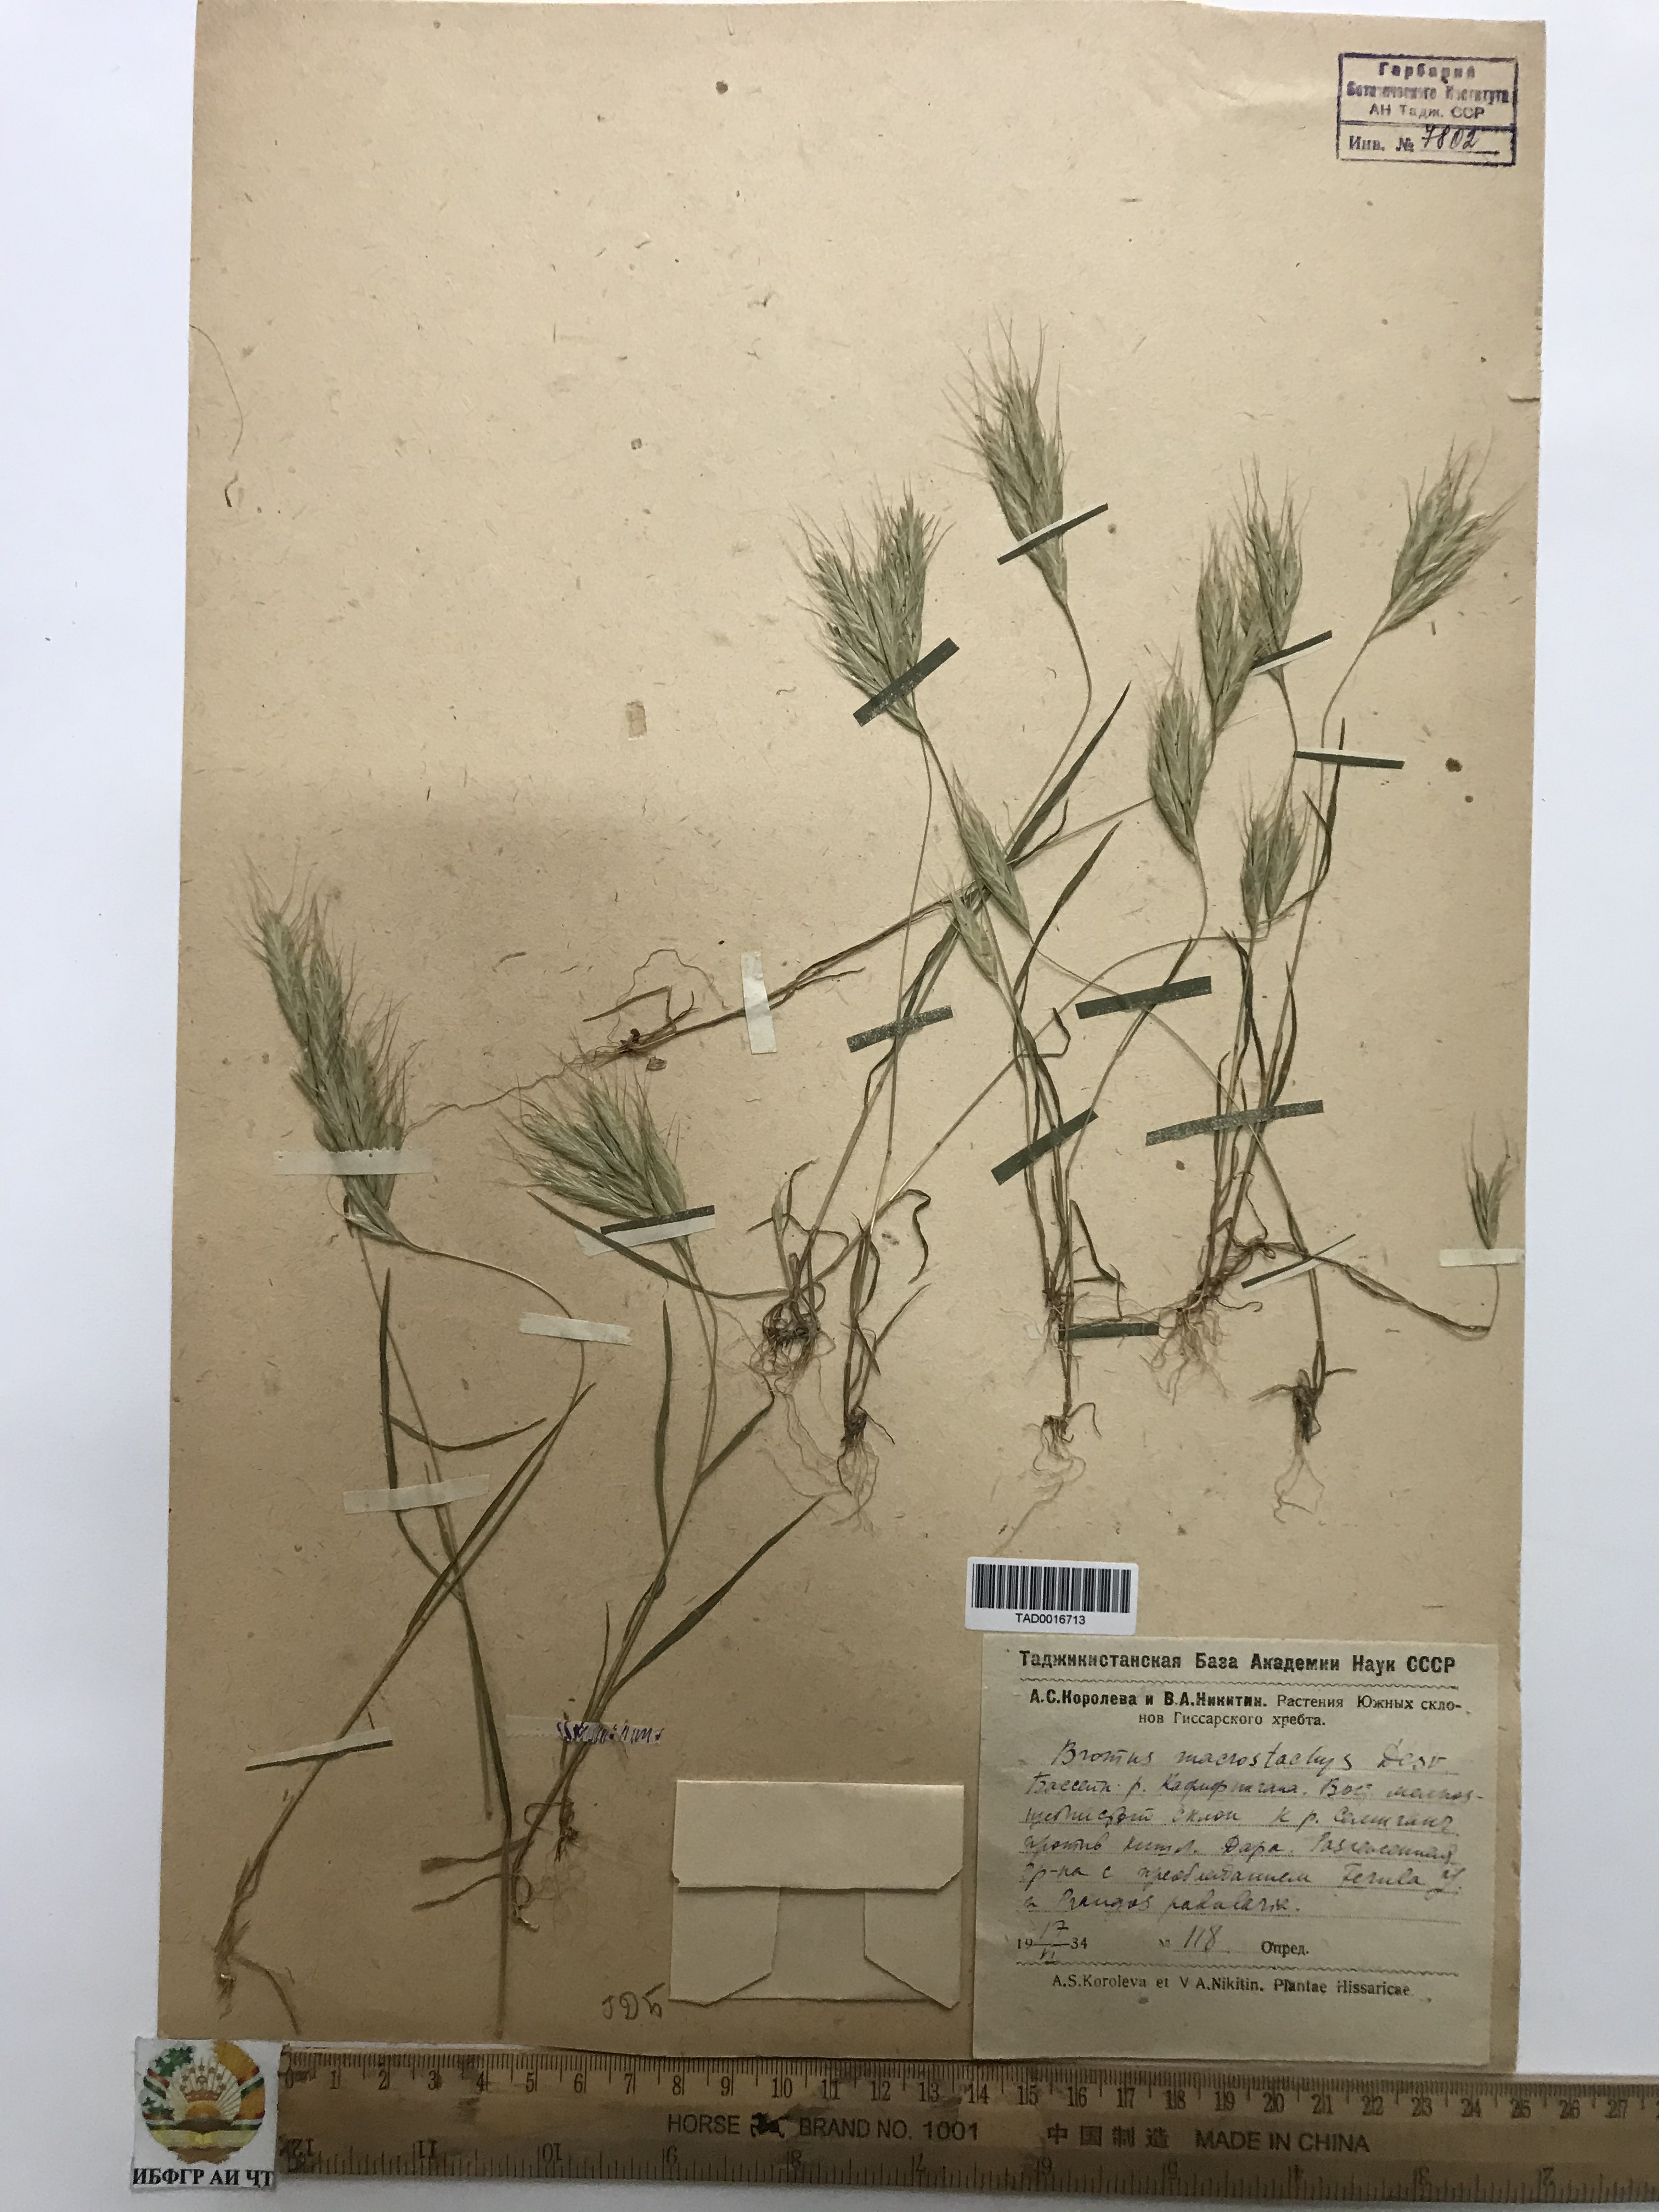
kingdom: Plantae
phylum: Tracheophyta
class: Liliopsida
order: Poales
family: Poaceae
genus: Bromus
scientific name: Bromus lanceolatus
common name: Mediterranean brome
